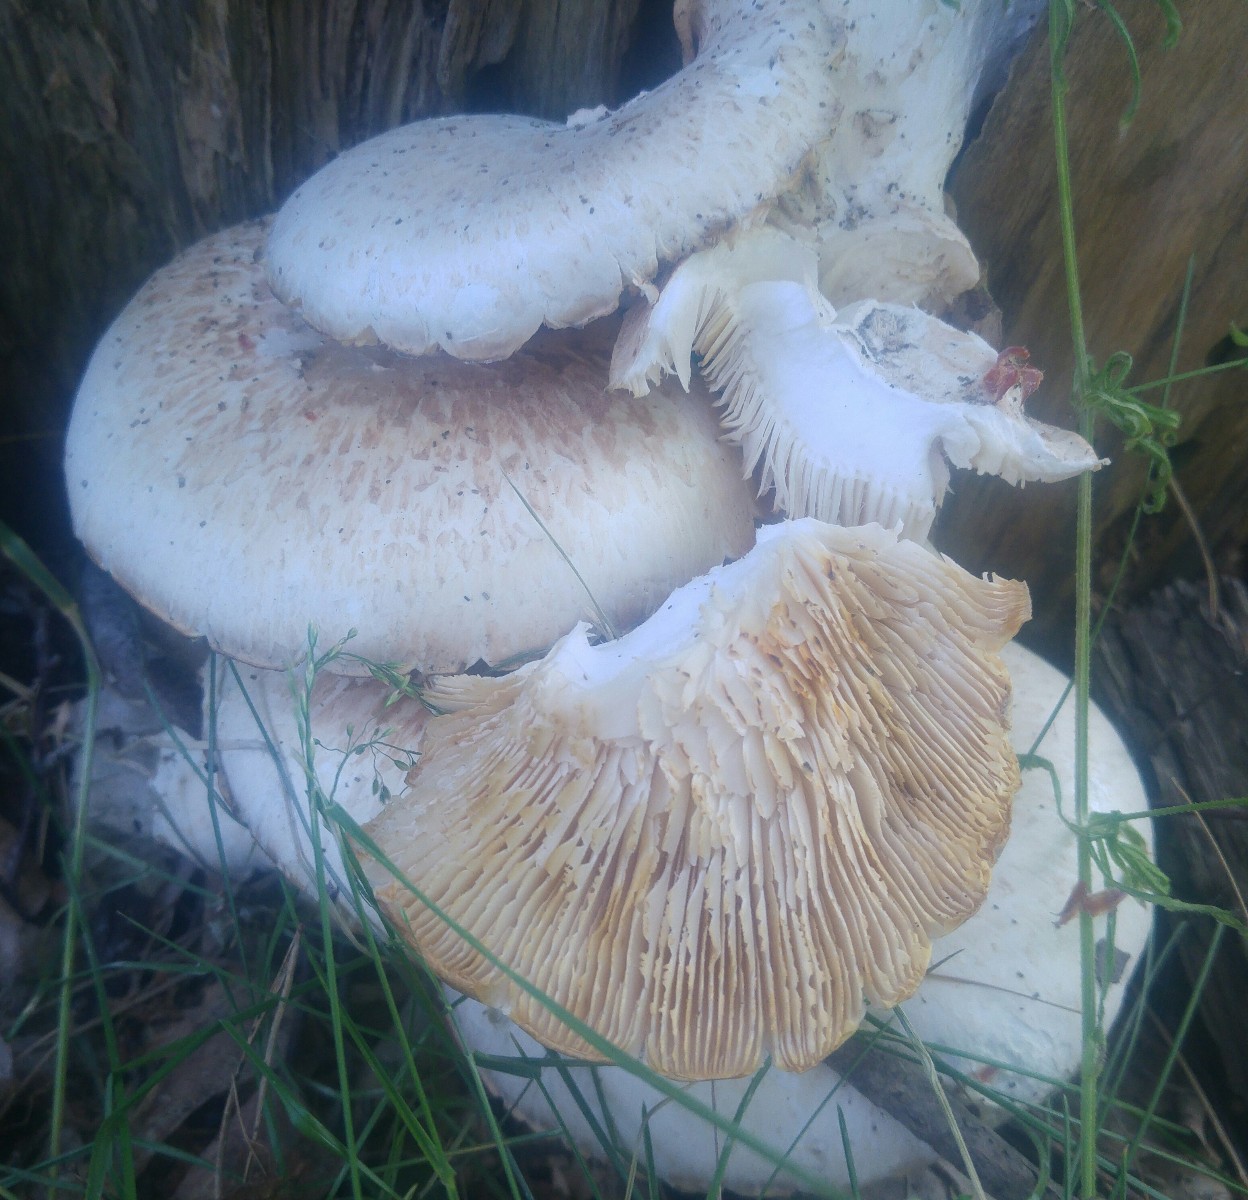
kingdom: Fungi
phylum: Basidiomycota
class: Agaricomycetes
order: Gloeophyllales
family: Gloeophyllaceae
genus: Neolentinus
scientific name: Neolentinus lepideus
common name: skællet sejhat
